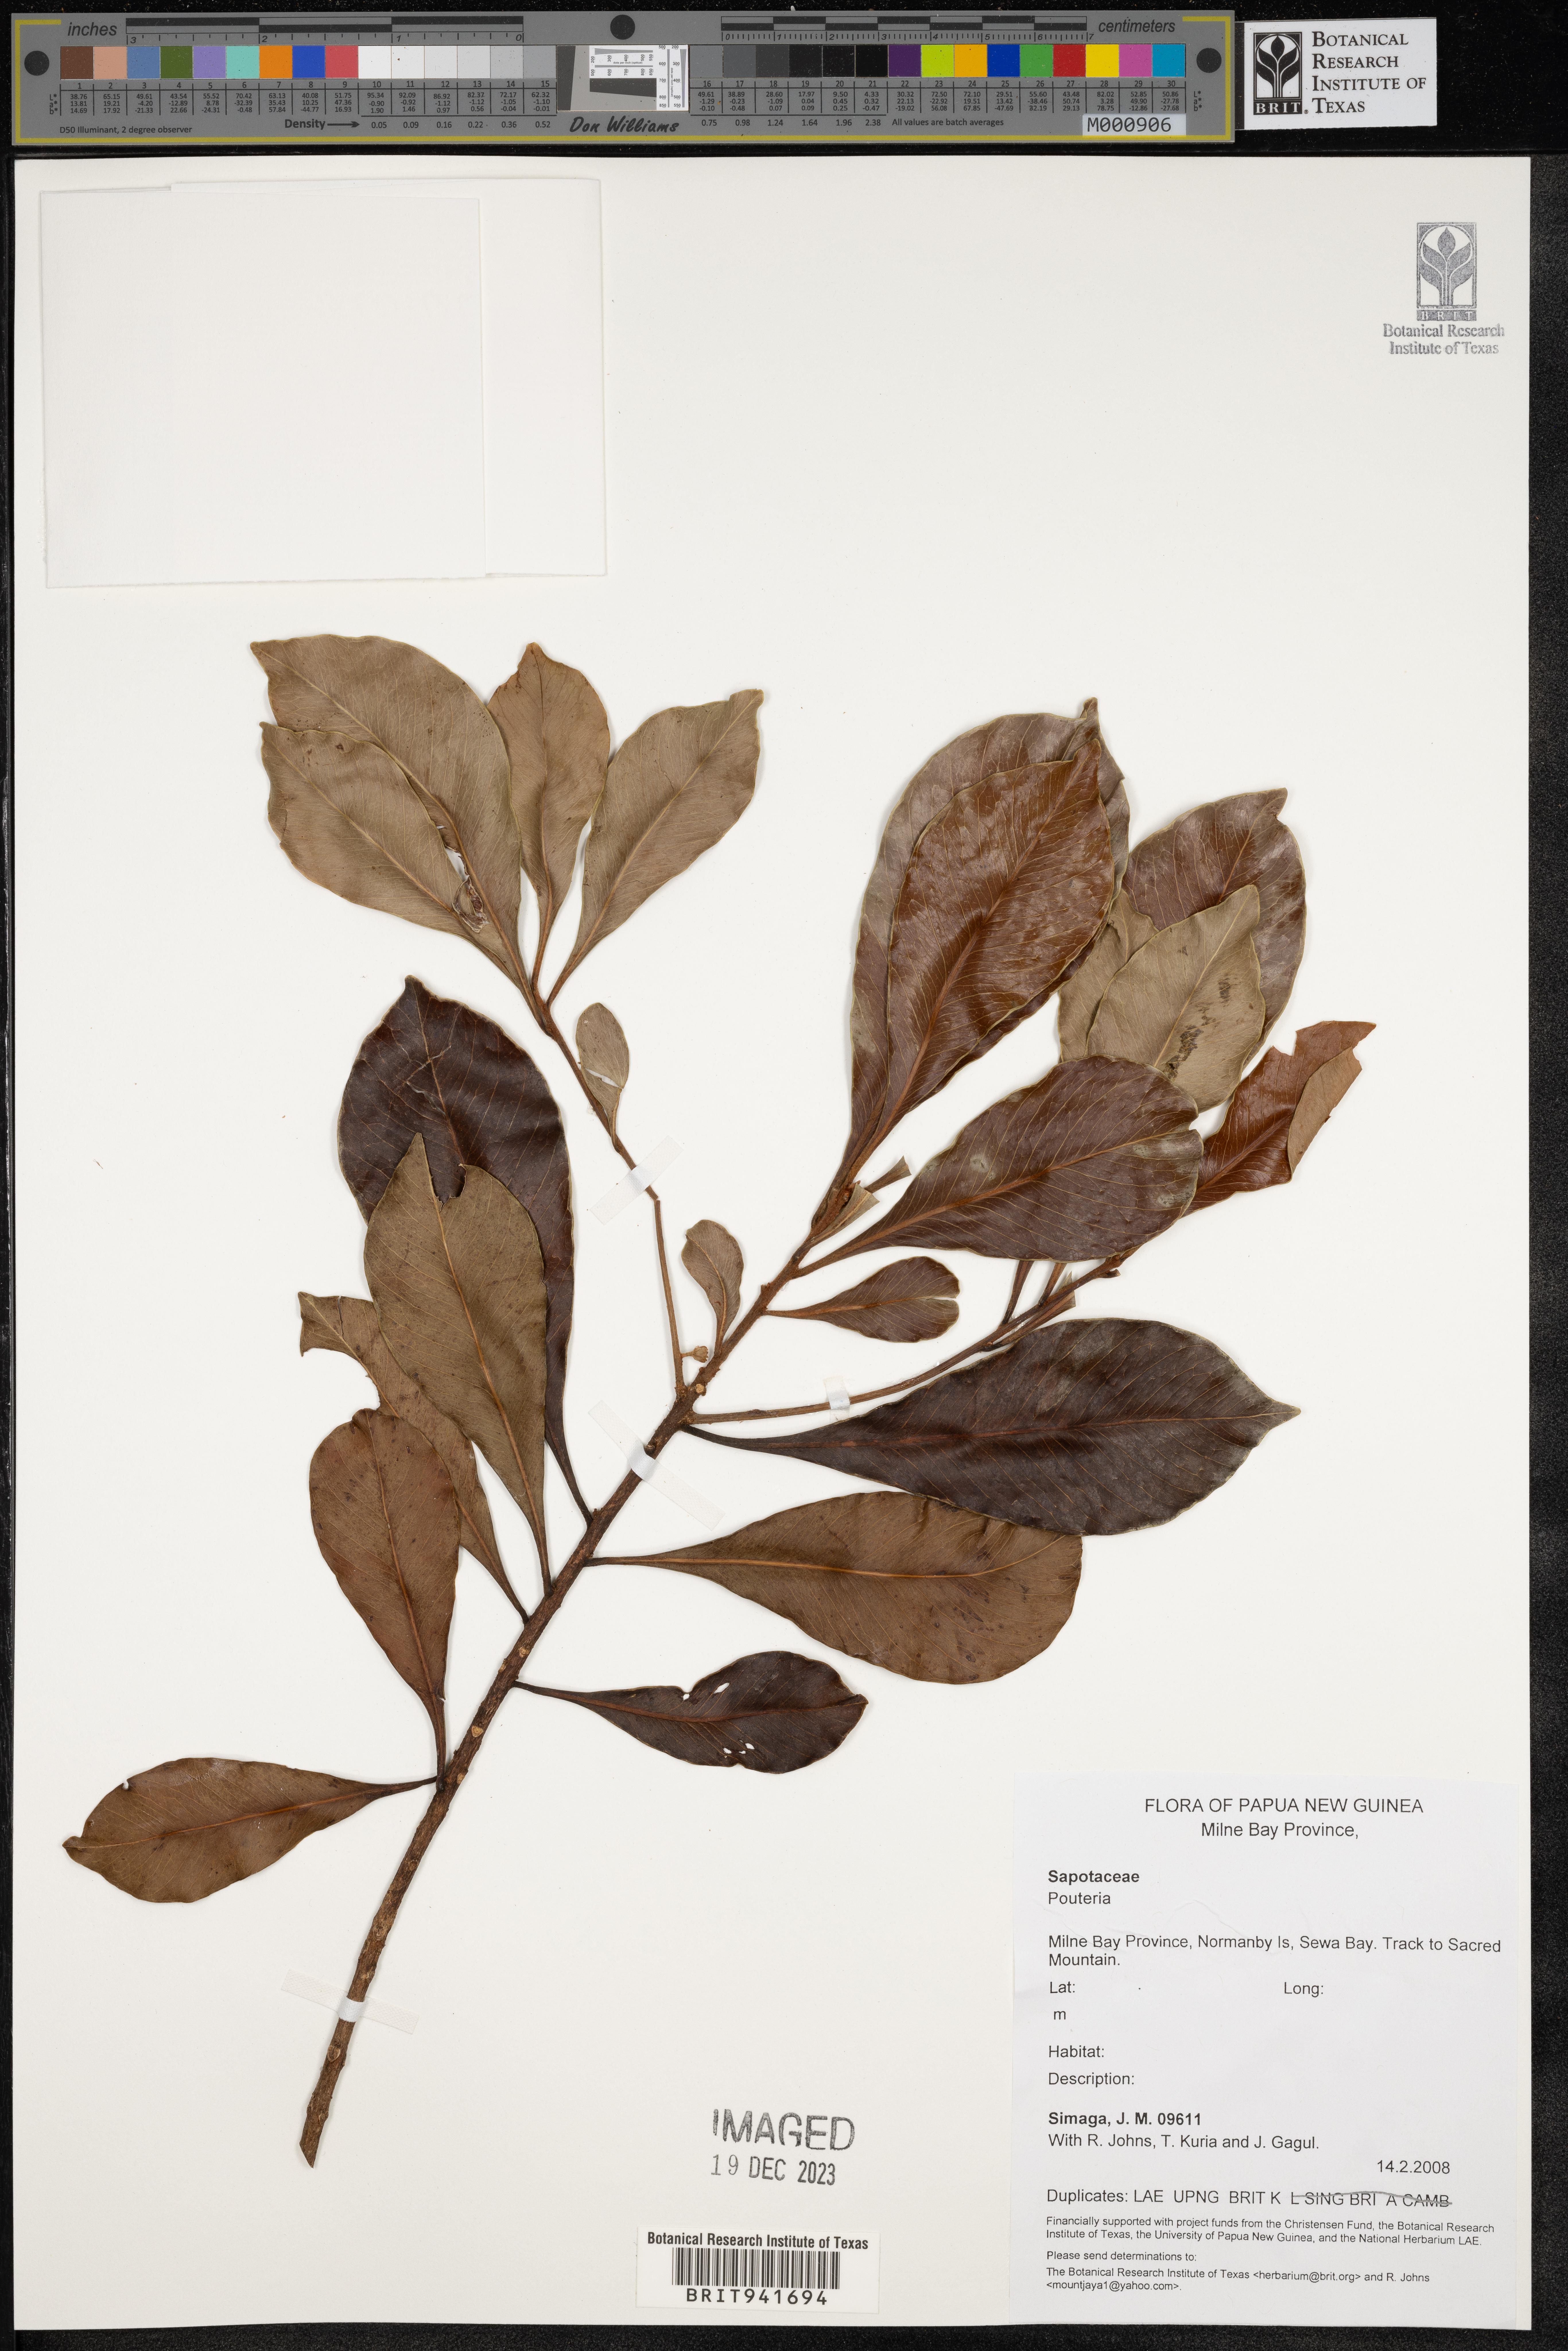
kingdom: Plantae
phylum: Tracheophyta
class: Magnoliopsida
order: Ericales
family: Sapotaceae
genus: Pouteria
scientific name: Pouteria
